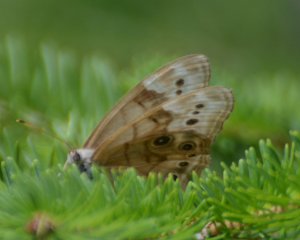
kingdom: Animalia
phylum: Arthropoda
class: Insecta
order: Lepidoptera
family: Nymphalidae
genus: Lethe
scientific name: Lethe anthedon
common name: Northern Pearly-Eye
